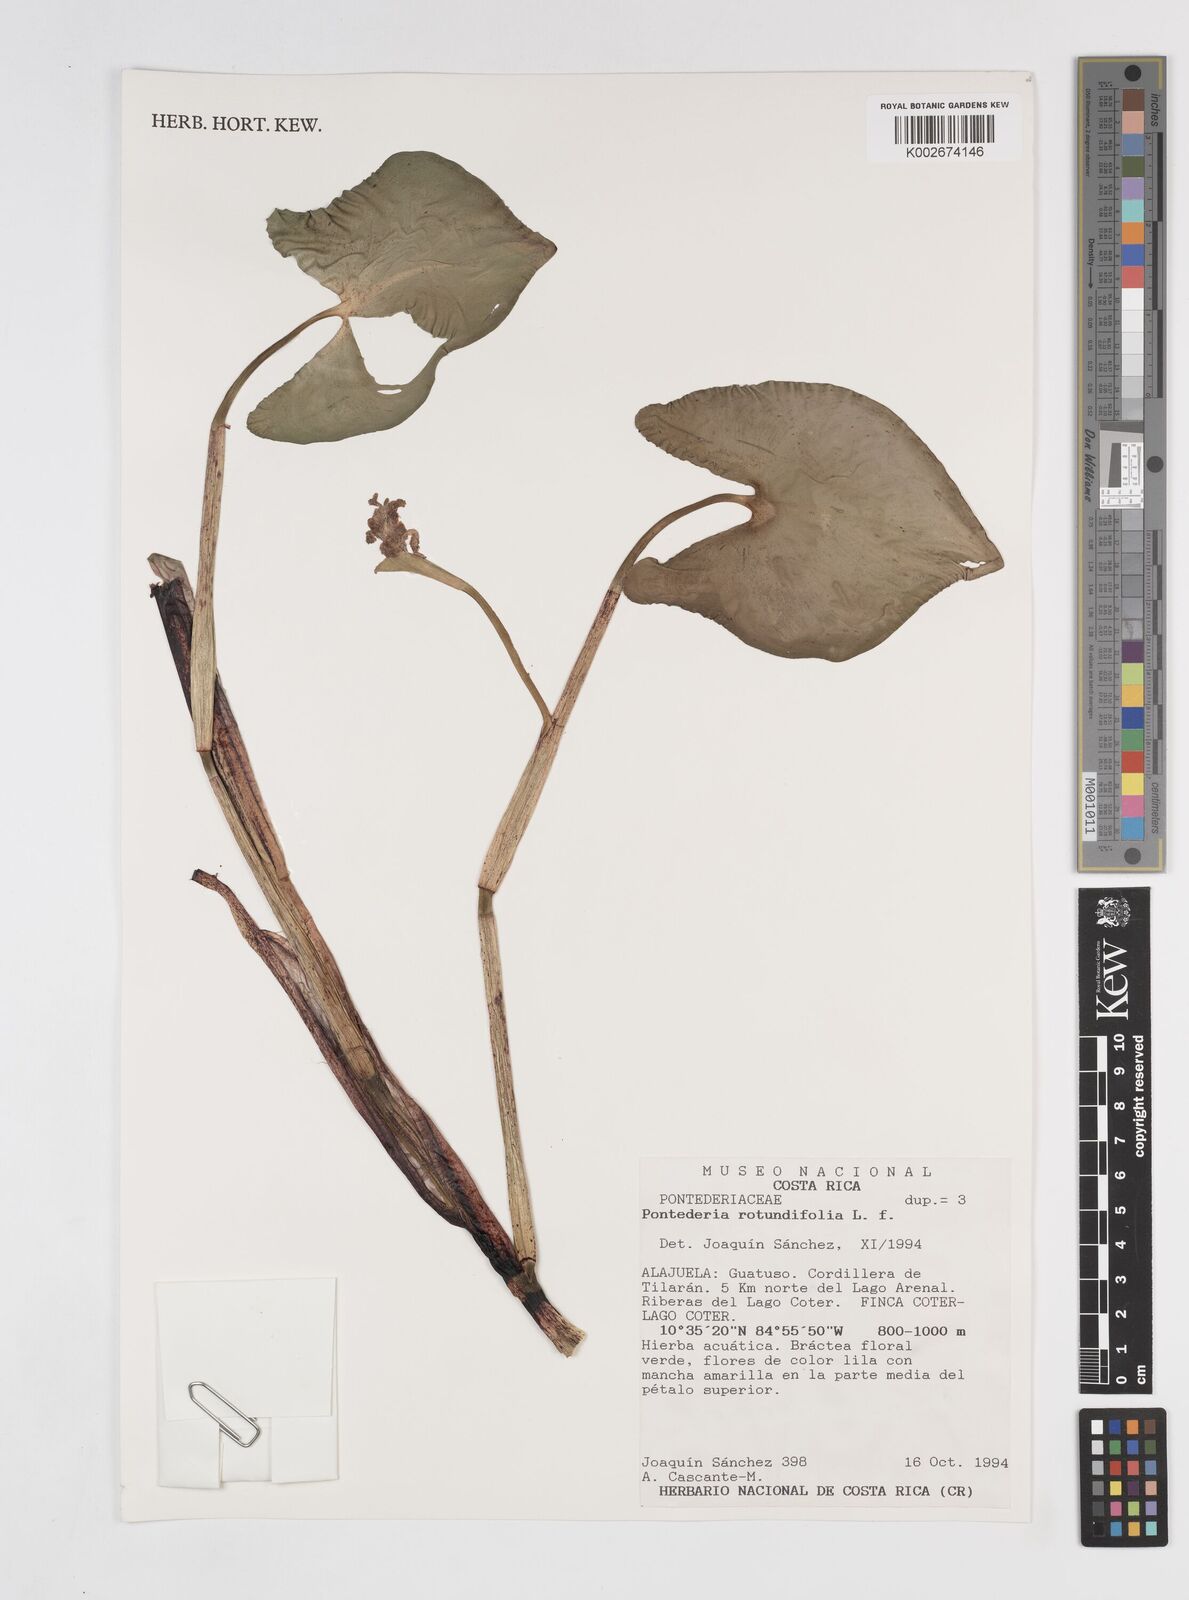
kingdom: Plantae
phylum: Tracheophyta
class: Liliopsida
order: Commelinales
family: Pontederiaceae
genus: Pontederia
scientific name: Pontederia rotundifolia
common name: Tropical pickerel-weed
